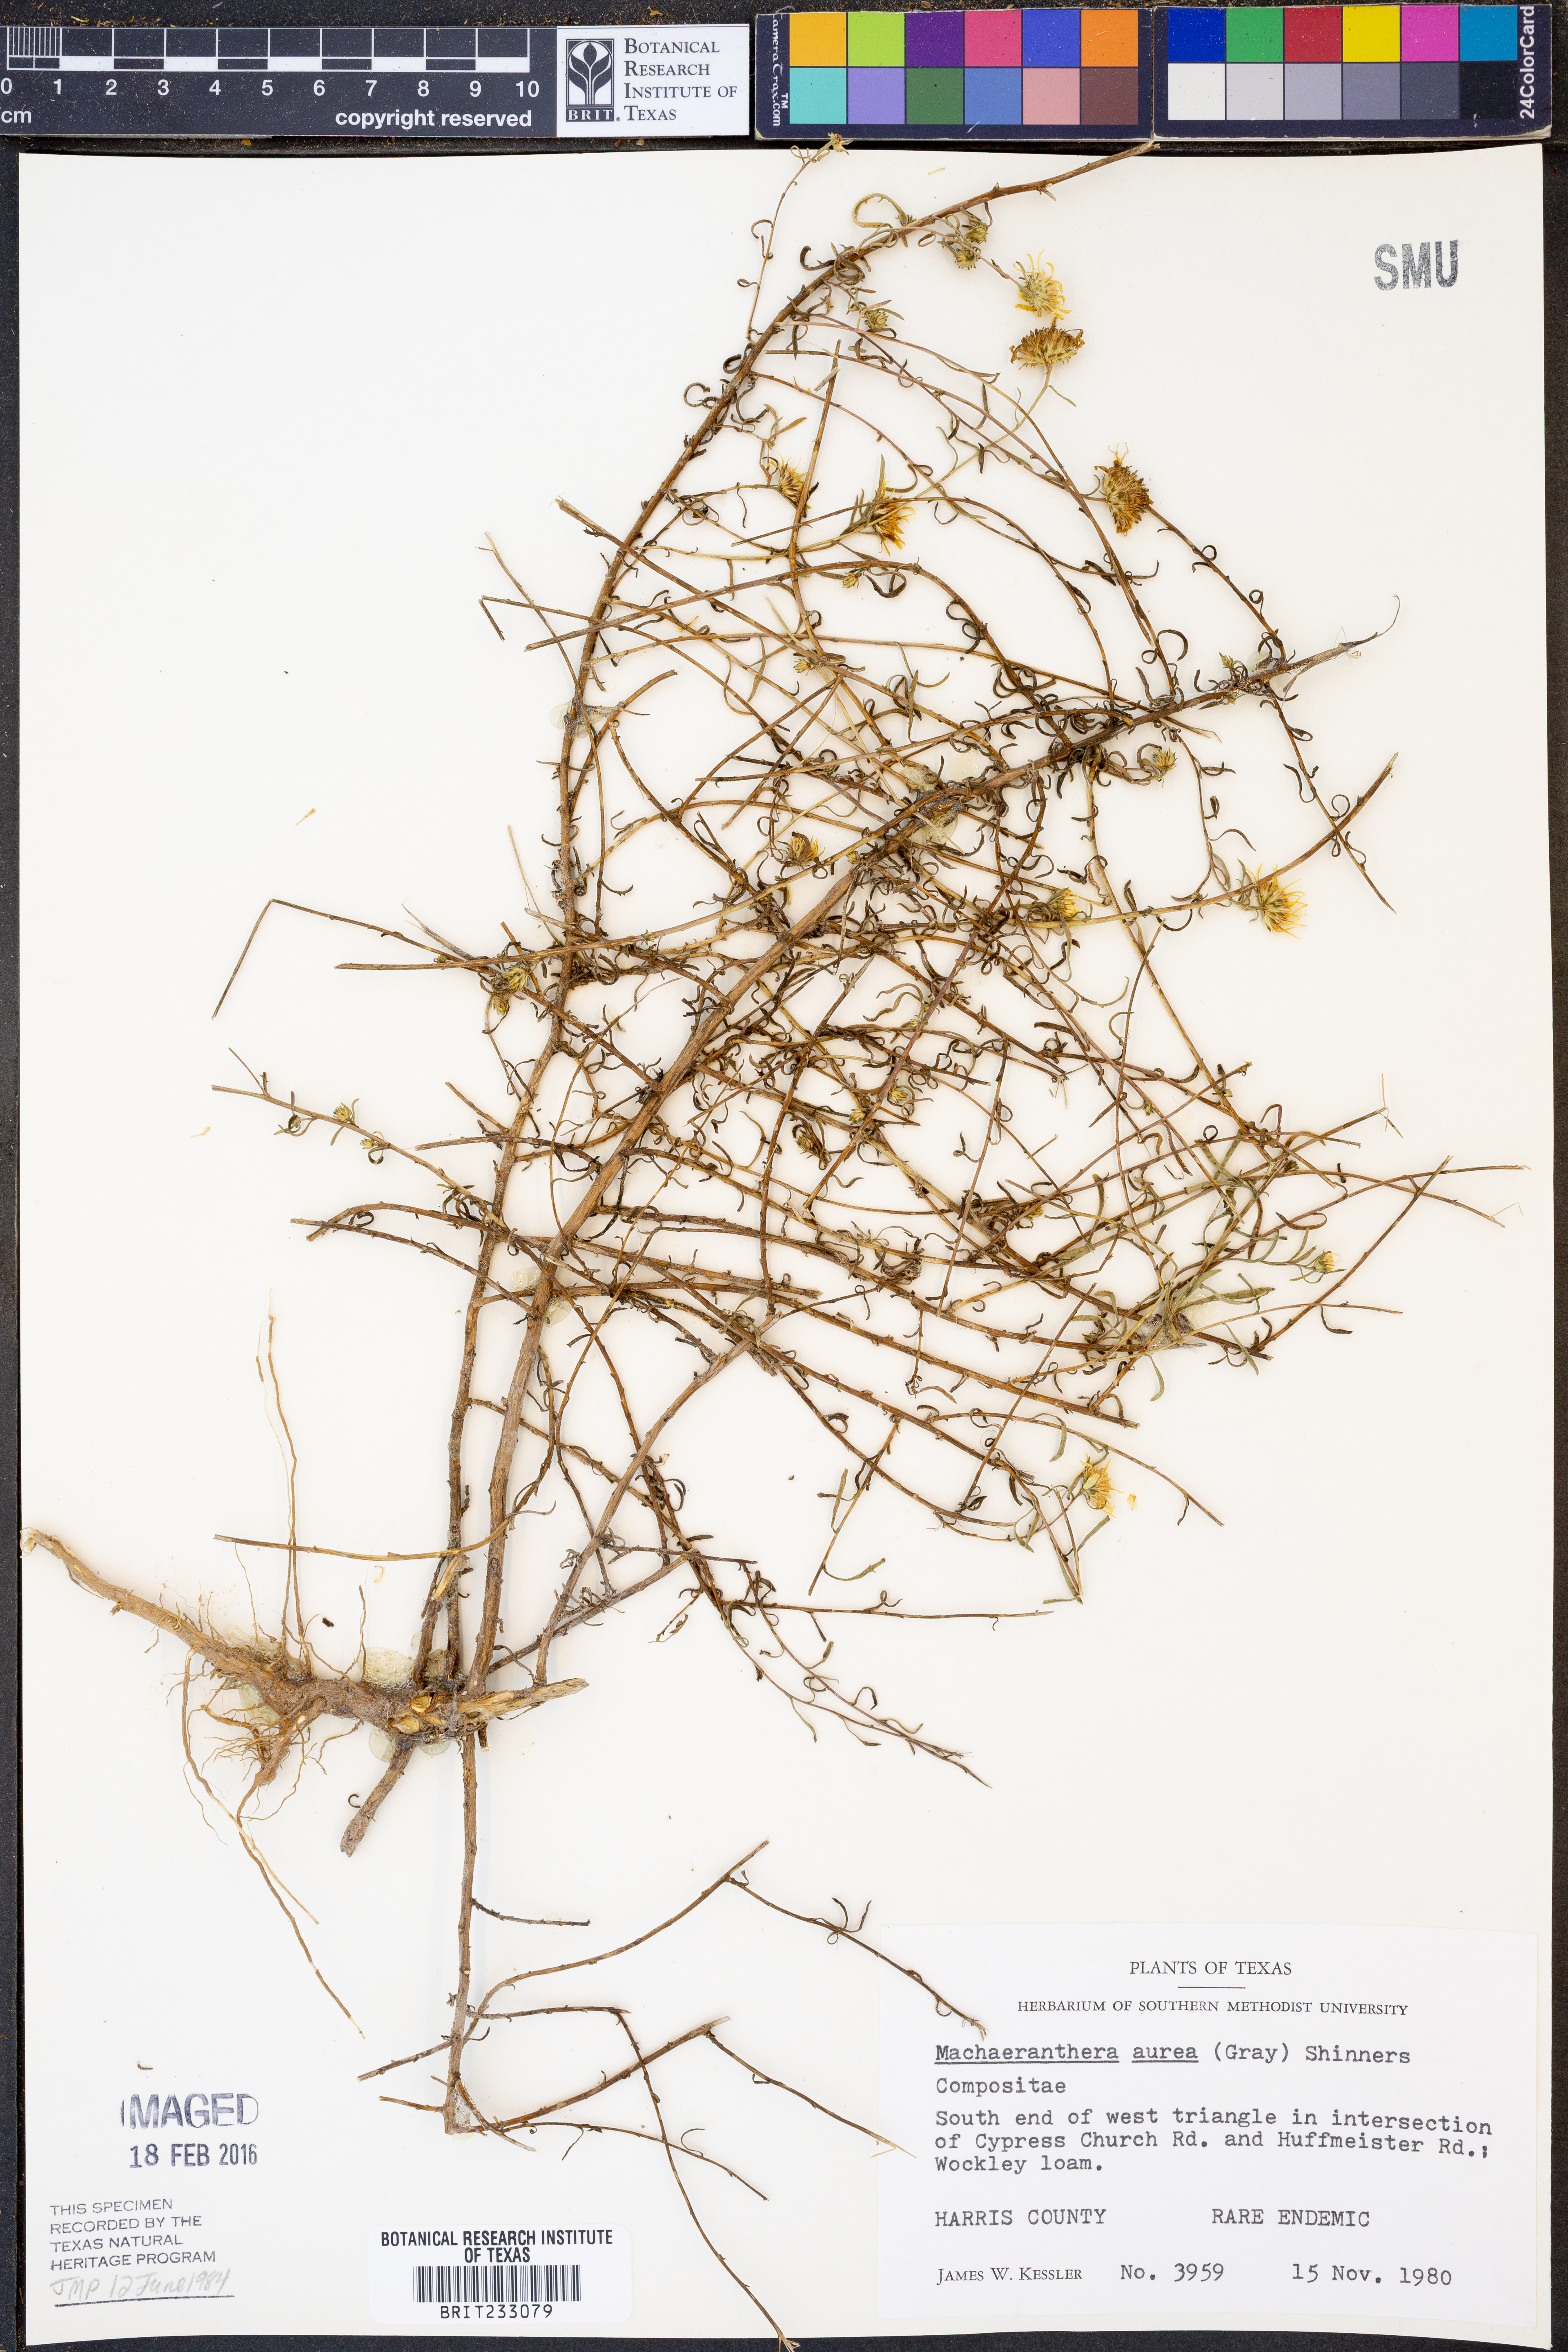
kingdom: Plantae
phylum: Tracheophyta
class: Magnoliopsida
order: Asterales
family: Asteraceae
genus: Rayjacksonia
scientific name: Rayjacksonia aurea
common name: Houston camphor daisy
